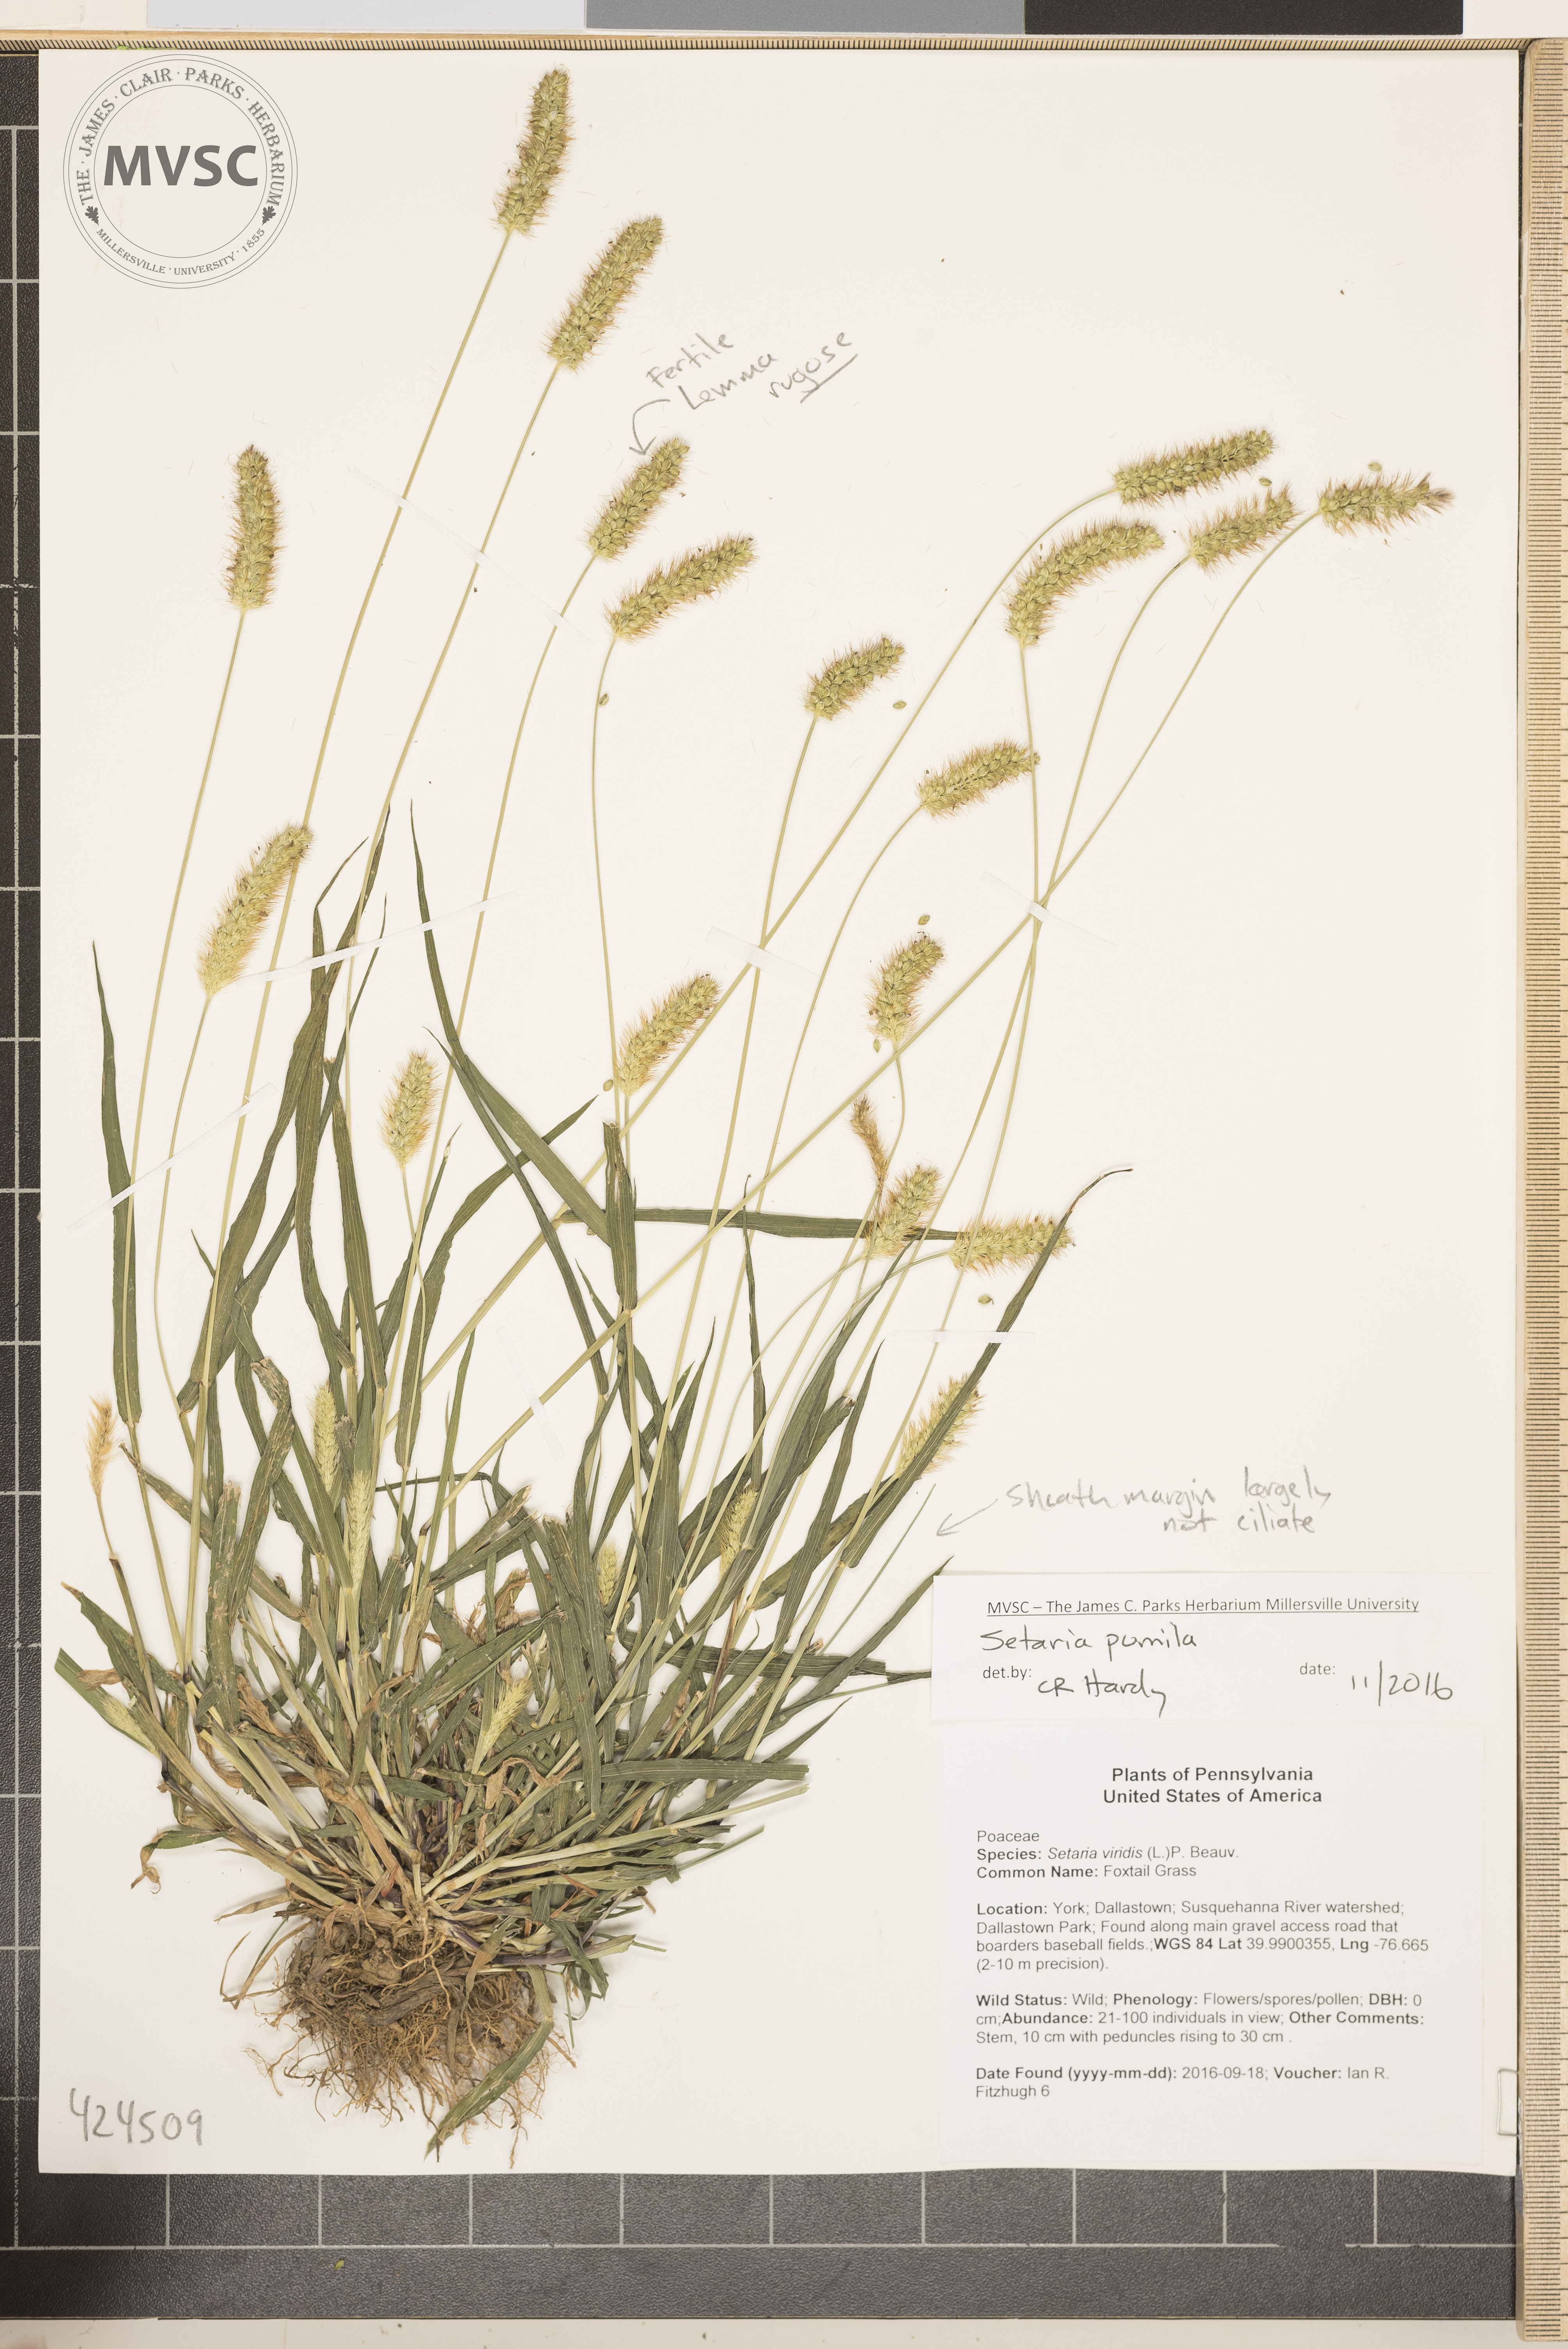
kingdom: Plantae
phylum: Tracheophyta
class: Liliopsida
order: Poales
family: Poaceae
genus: Setaria
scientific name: Setaria pumila
